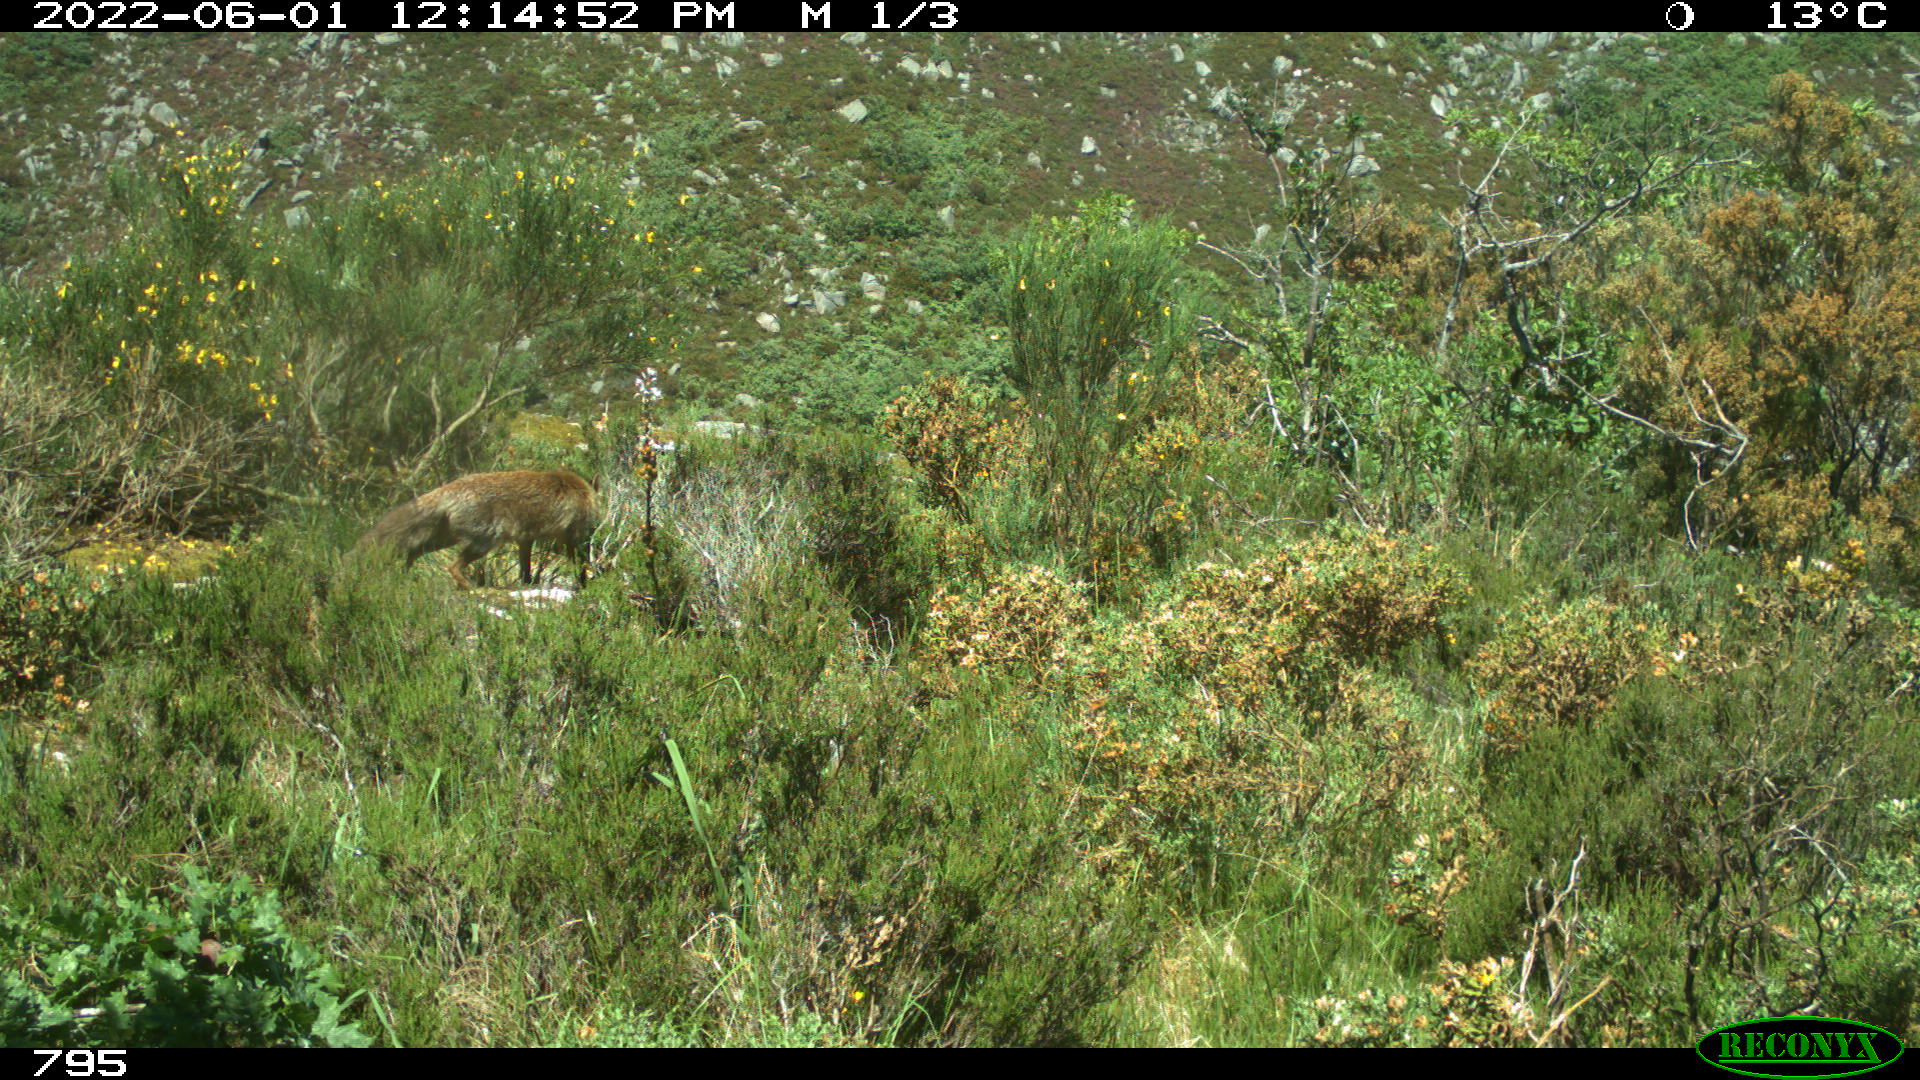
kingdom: Animalia
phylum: Chordata
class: Mammalia
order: Carnivora
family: Canidae
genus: Vulpes
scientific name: Vulpes vulpes
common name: Red fox
